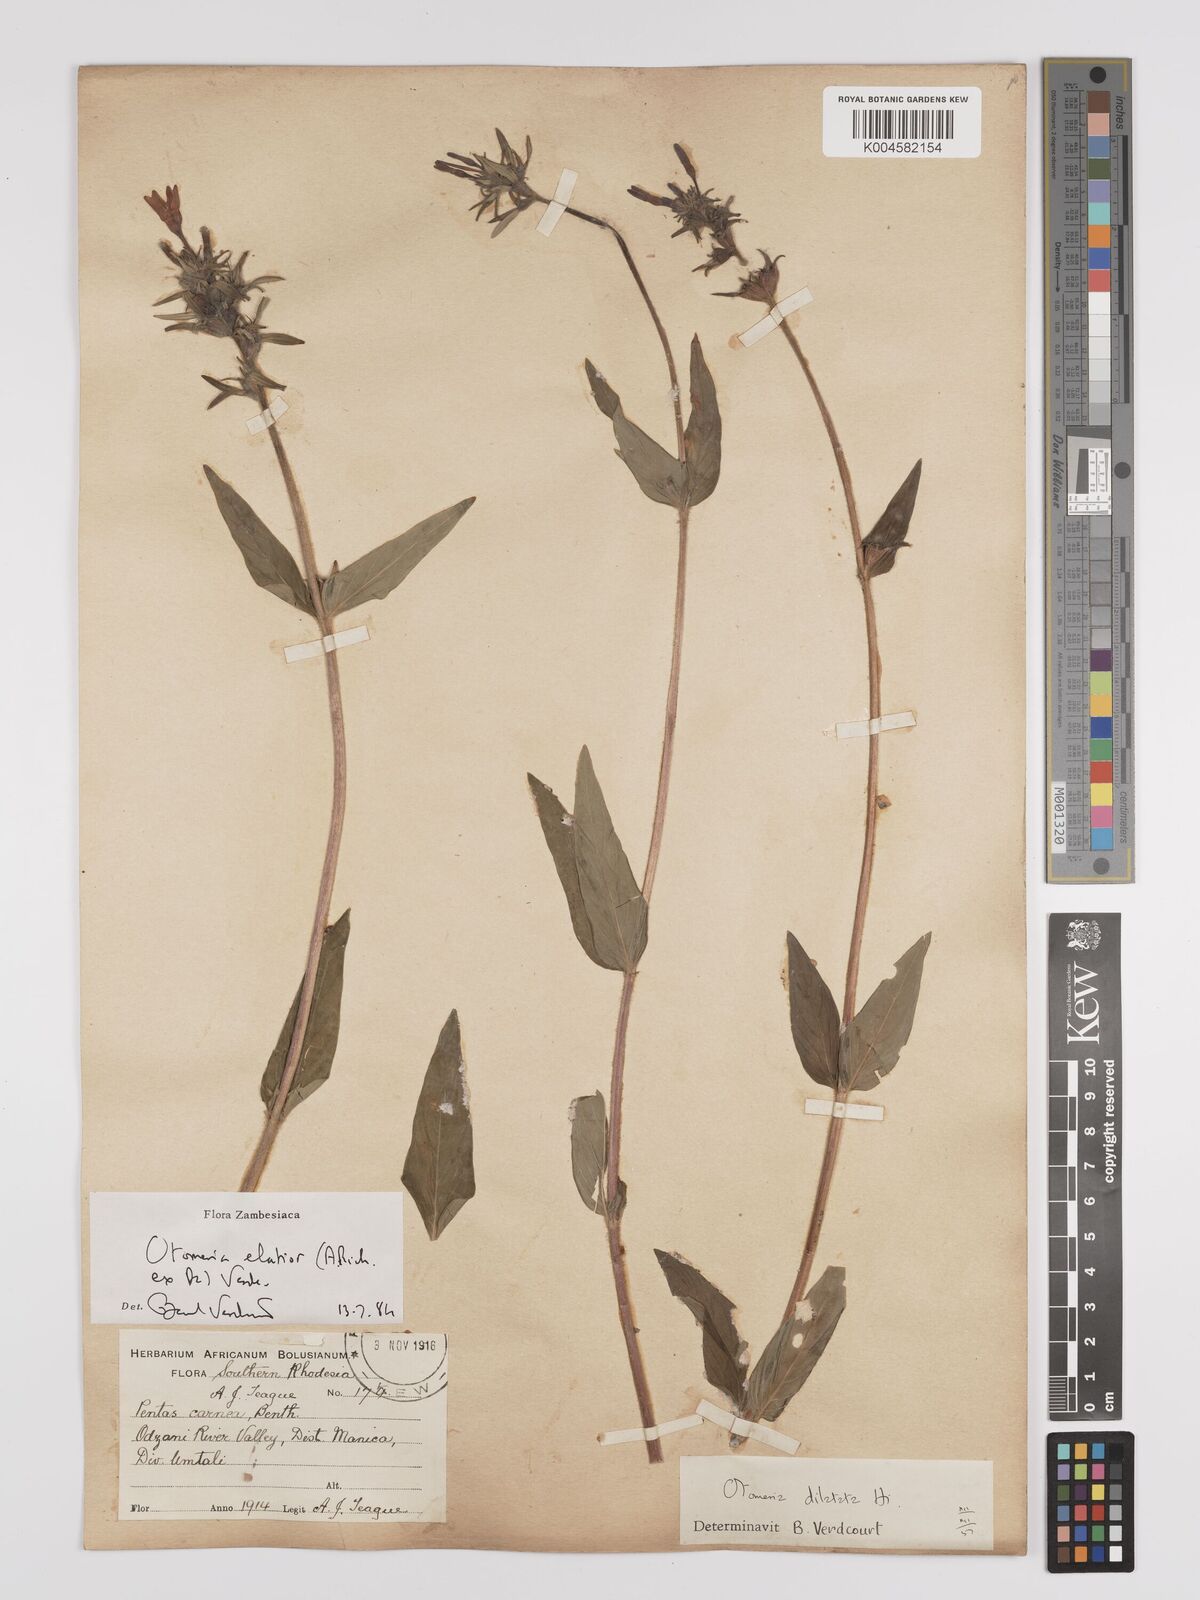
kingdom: Plantae
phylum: Tracheophyta
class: Magnoliopsida
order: Gentianales
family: Rubiaceae
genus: Otomeria
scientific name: Otomeria elatior
